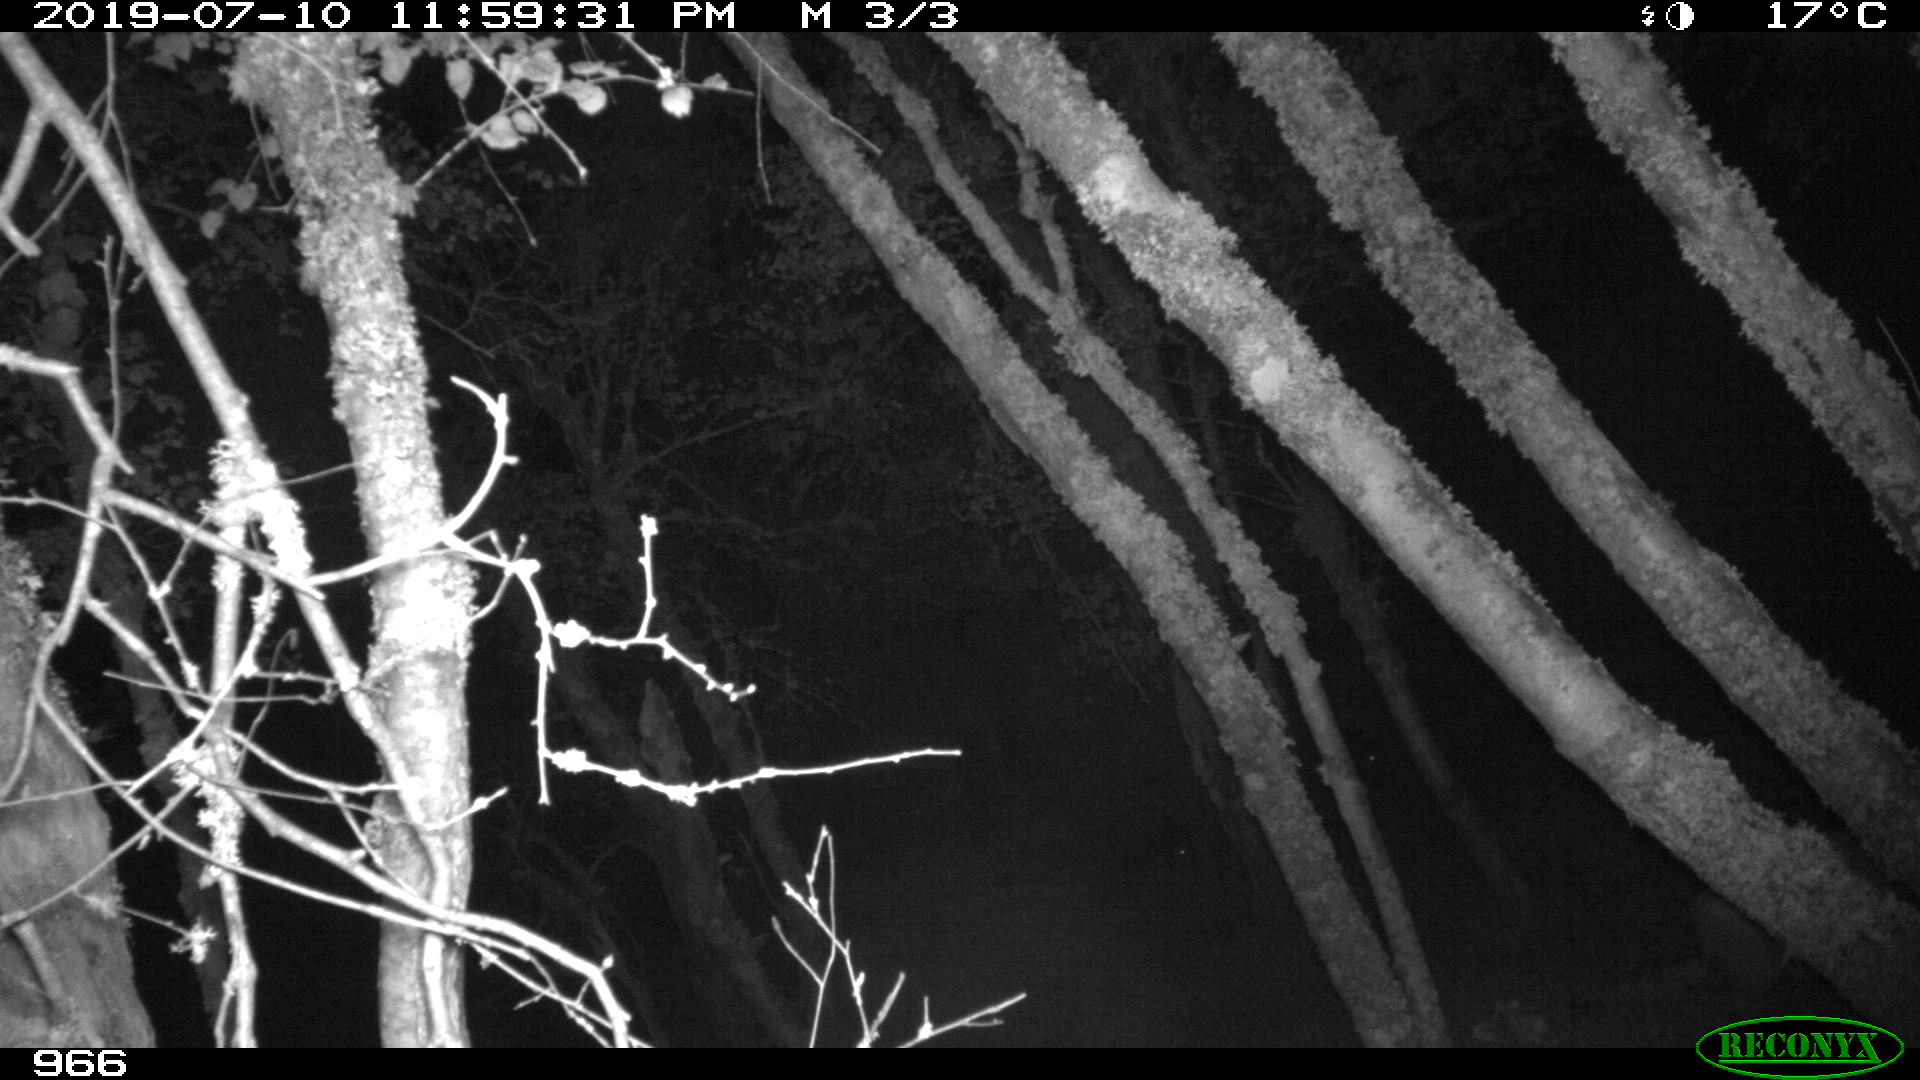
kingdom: Animalia
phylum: Chordata
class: Mammalia
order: Artiodactyla
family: Suidae
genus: Sus
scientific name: Sus scrofa
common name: Wild boar
